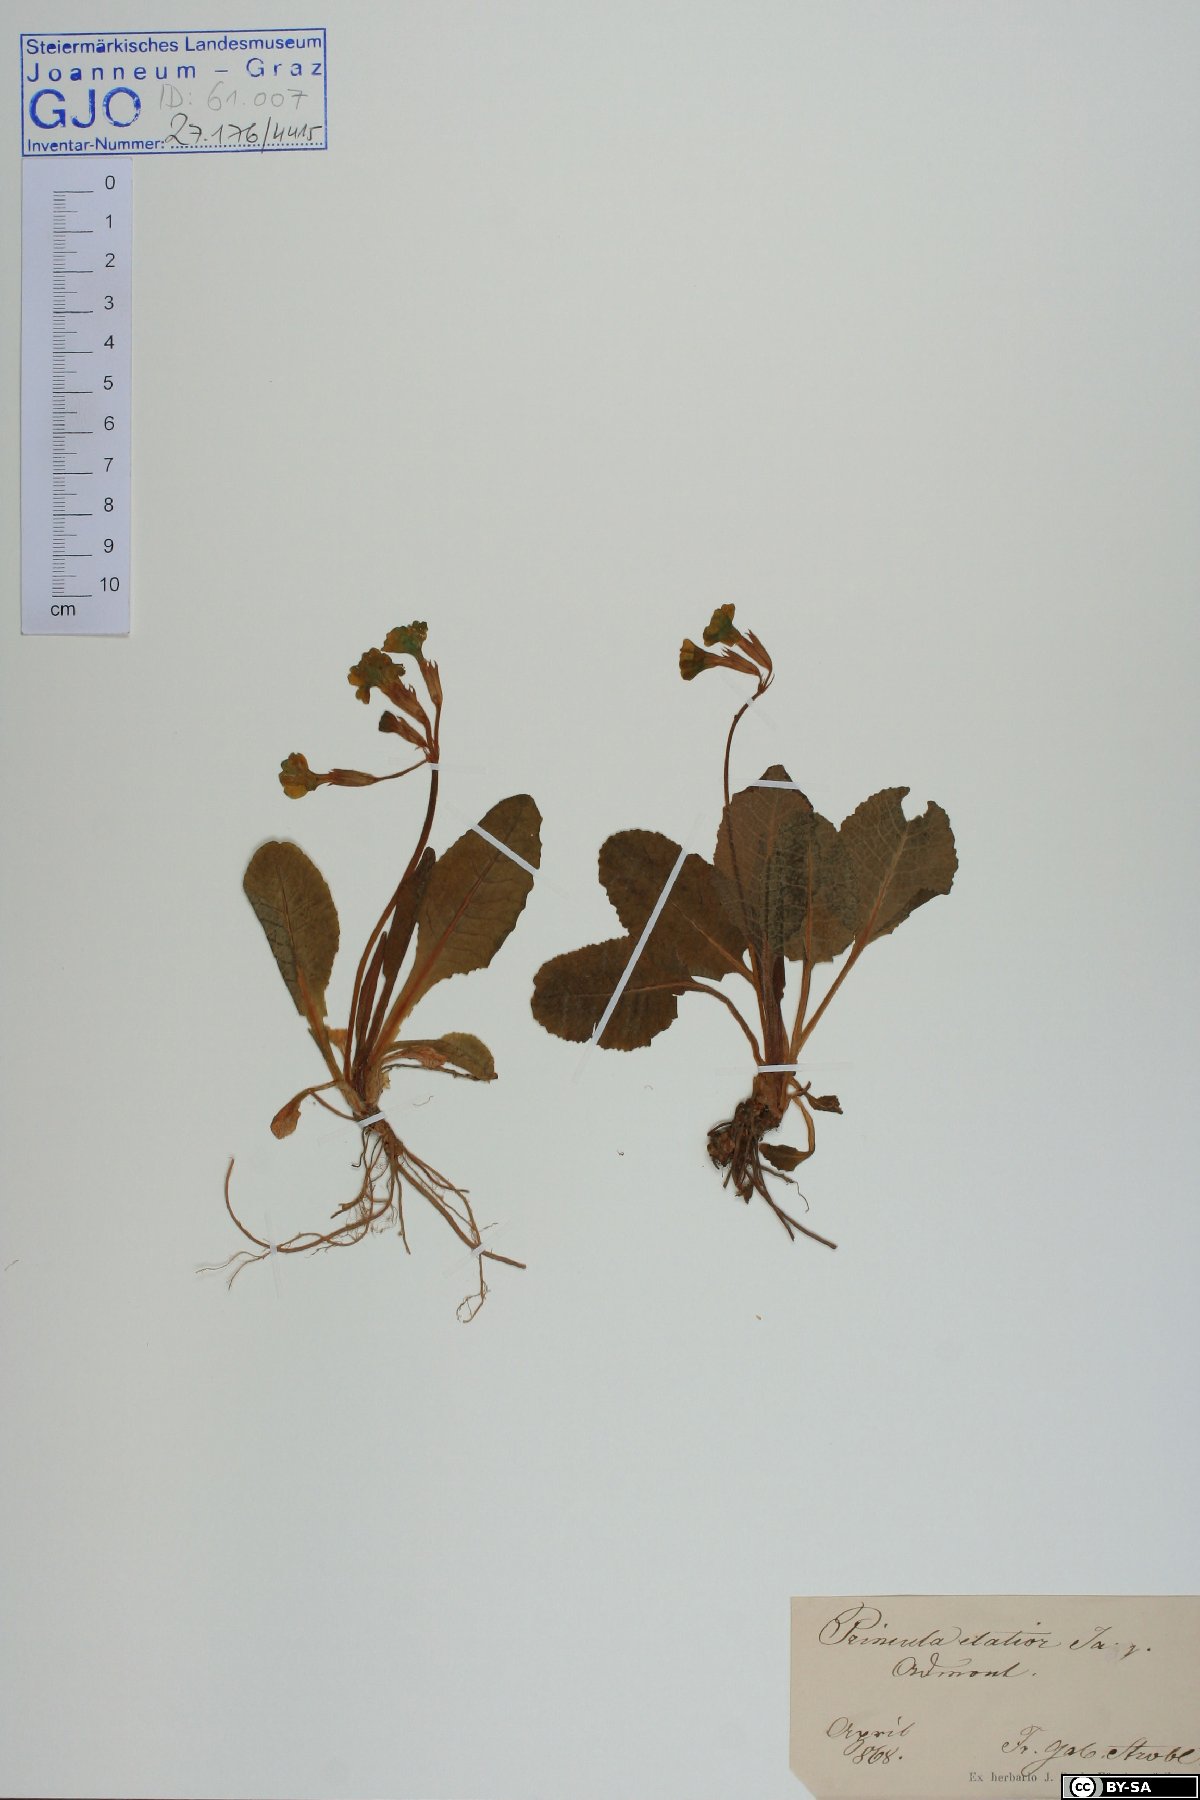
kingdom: Plantae
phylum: Tracheophyta
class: Magnoliopsida
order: Ericales
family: Primulaceae
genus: Primula
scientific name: Primula elatior
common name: Oxlip
